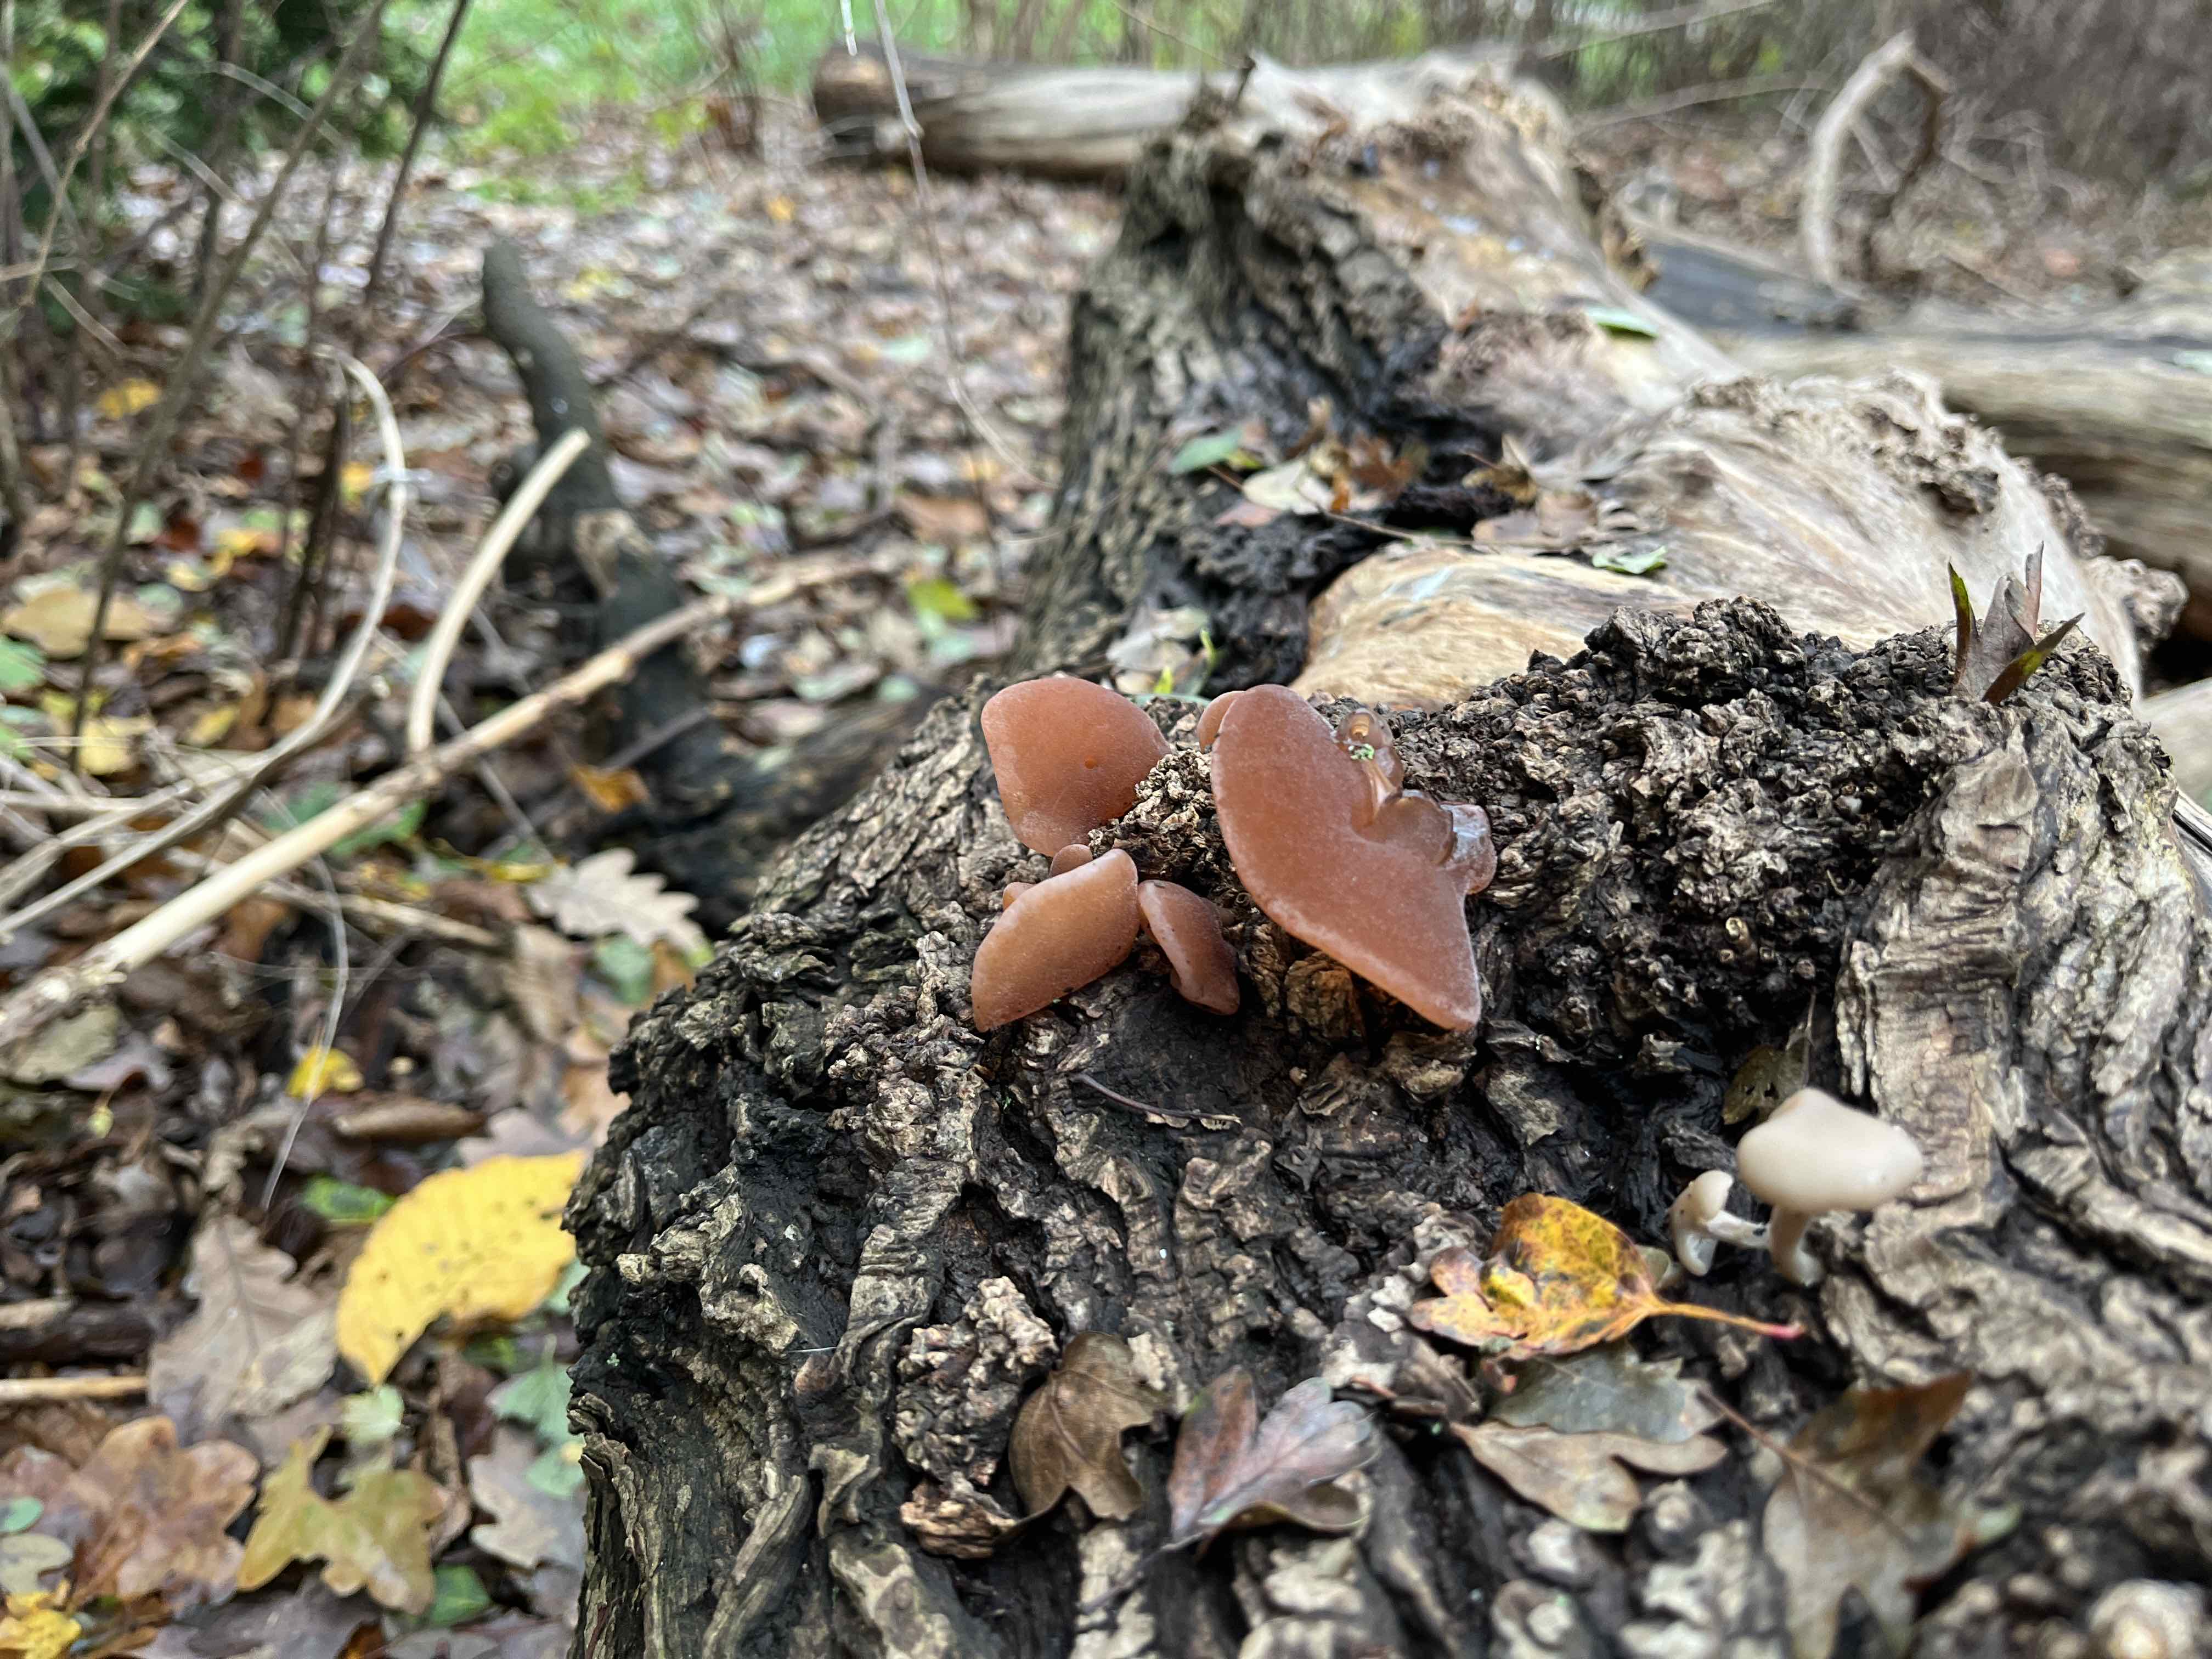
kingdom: Fungi
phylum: Basidiomycota
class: Agaricomycetes
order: Auriculariales
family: Auriculariaceae
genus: Auricularia
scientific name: Auricularia auricula-judae
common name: almindelig judasøre
